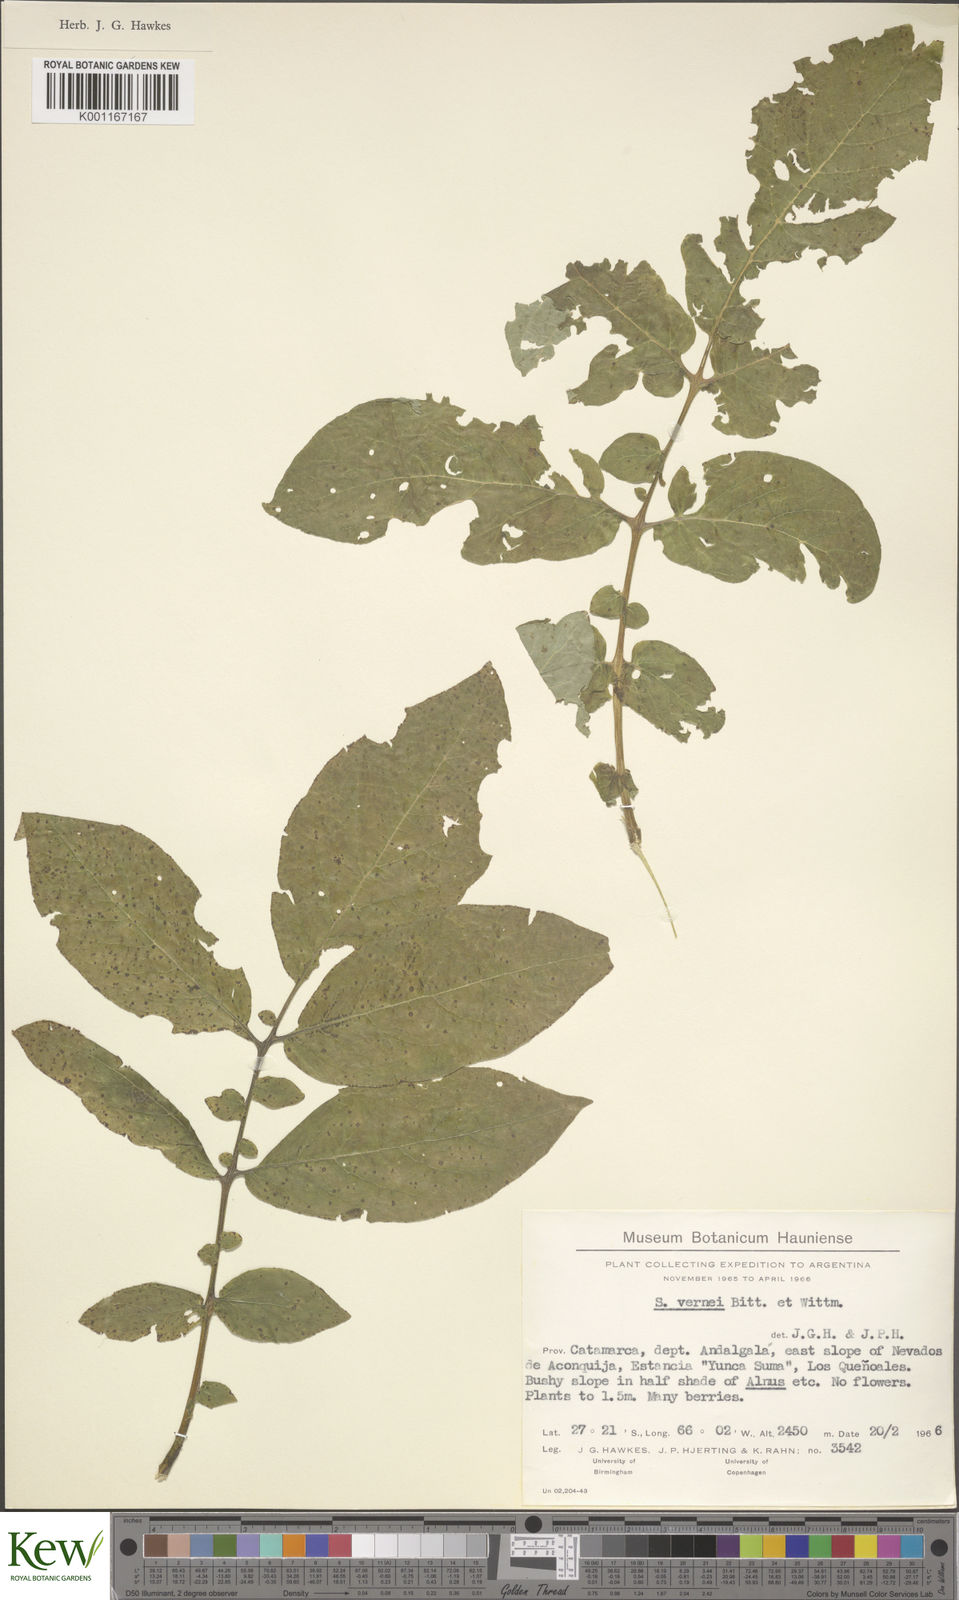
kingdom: Plantae
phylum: Tracheophyta
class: Magnoliopsida
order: Solanales
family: Solanaceae
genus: Solanum
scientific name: Solanum vernei
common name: Purple potato
